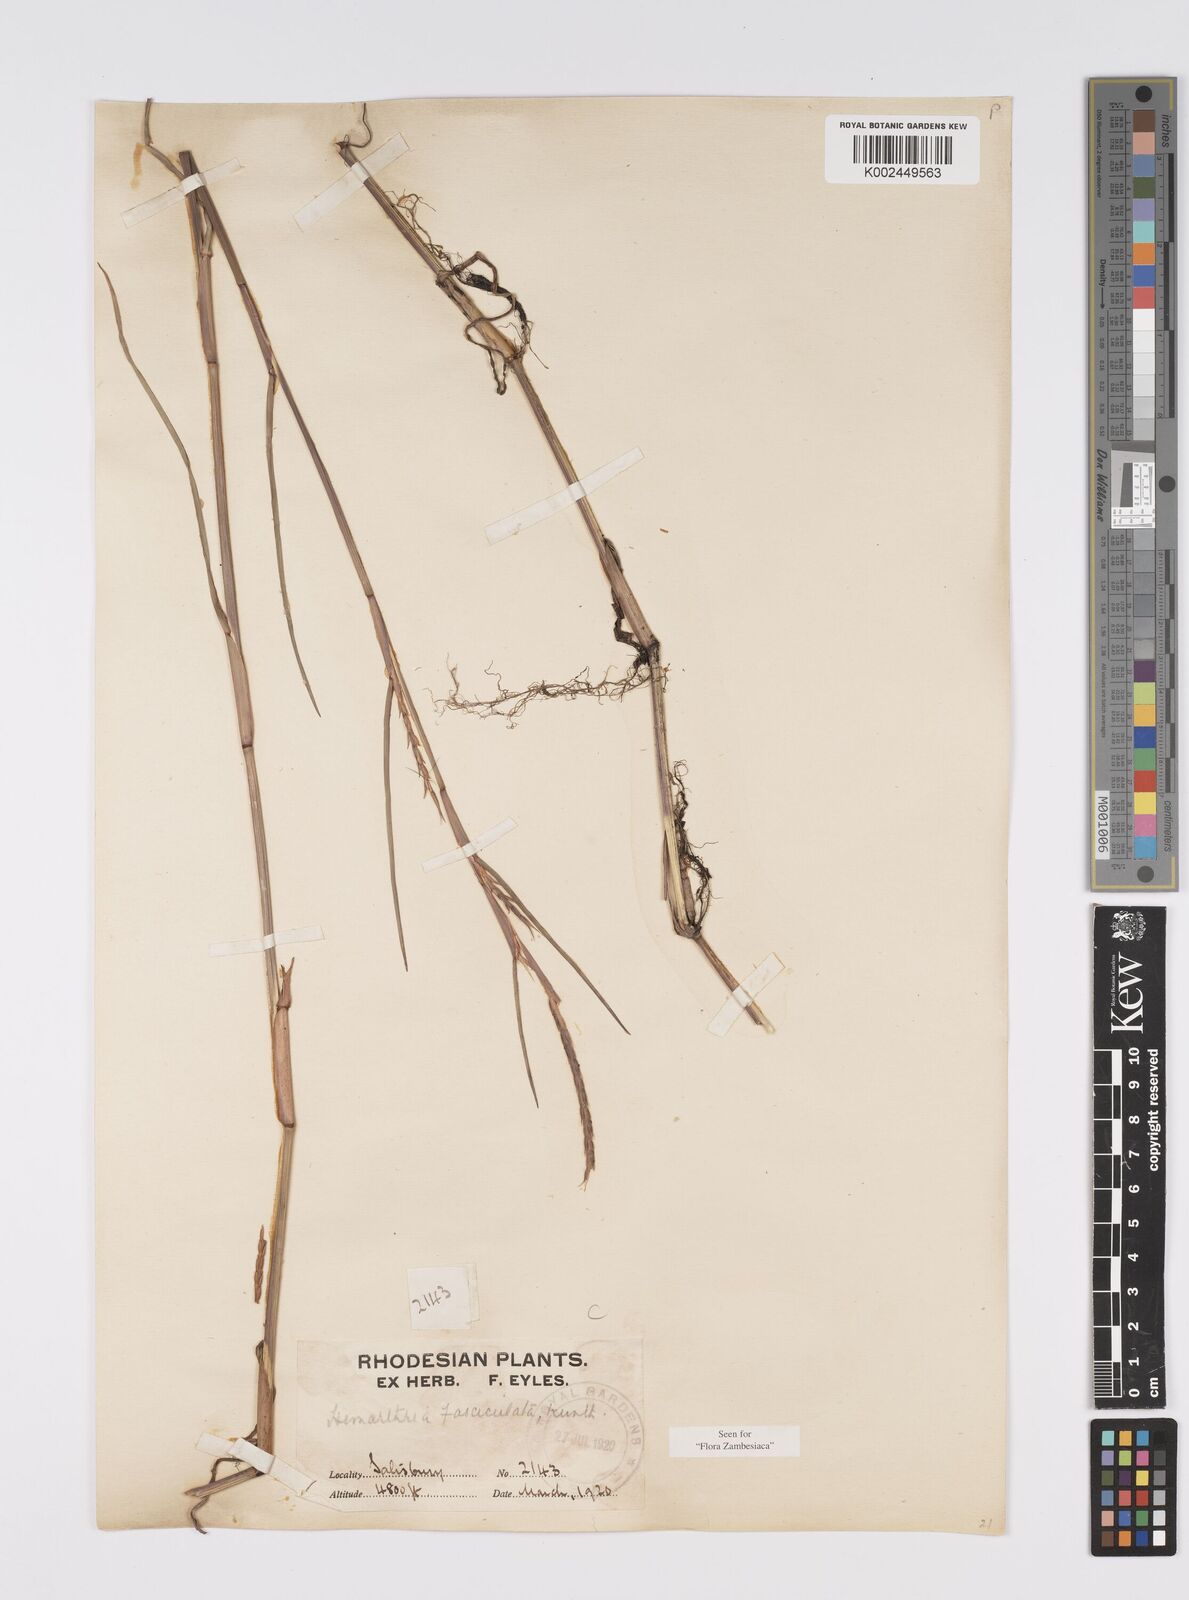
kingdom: Plantae
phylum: Tracheophyta
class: Liliopsida
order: Poales
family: Poaceae
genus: Hemarthria
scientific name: Hemarthria altissima
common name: African jointgrass
